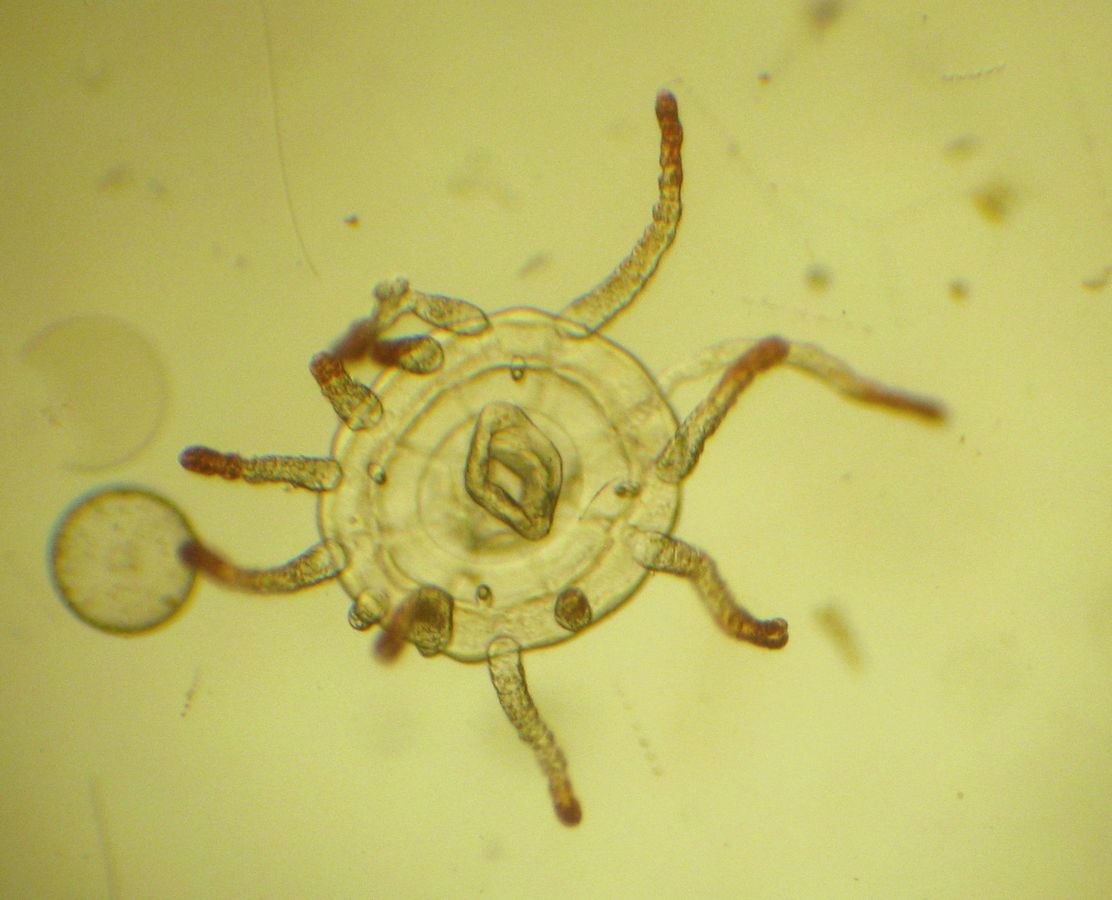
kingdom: Animalia
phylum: Cnidaria
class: Hydrozoa
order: Trachymedusae
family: Rhopalonematidae
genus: Aglantha
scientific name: Aglantha digitale
